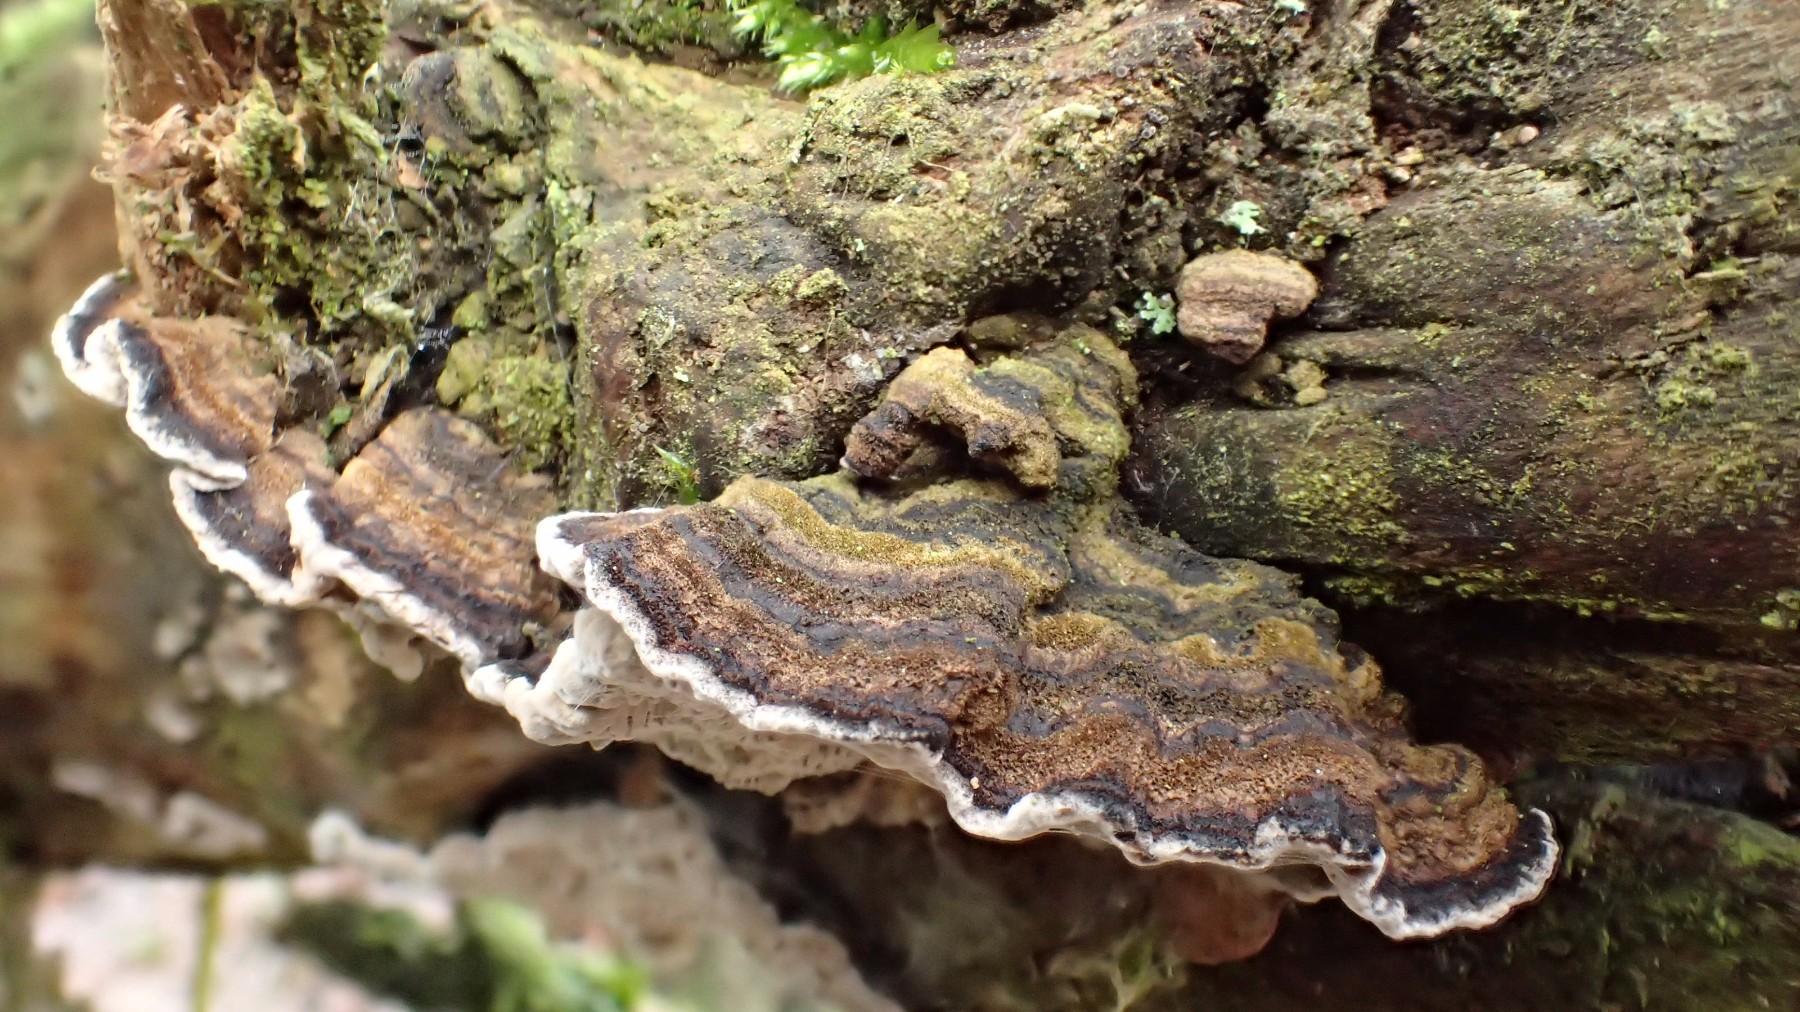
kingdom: Fungi
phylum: Basidiomycota
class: Agaricomycetes
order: Polyporales
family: Polyporaceae
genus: Podofomes
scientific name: Podofomes mollis
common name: blød begporesvamp
